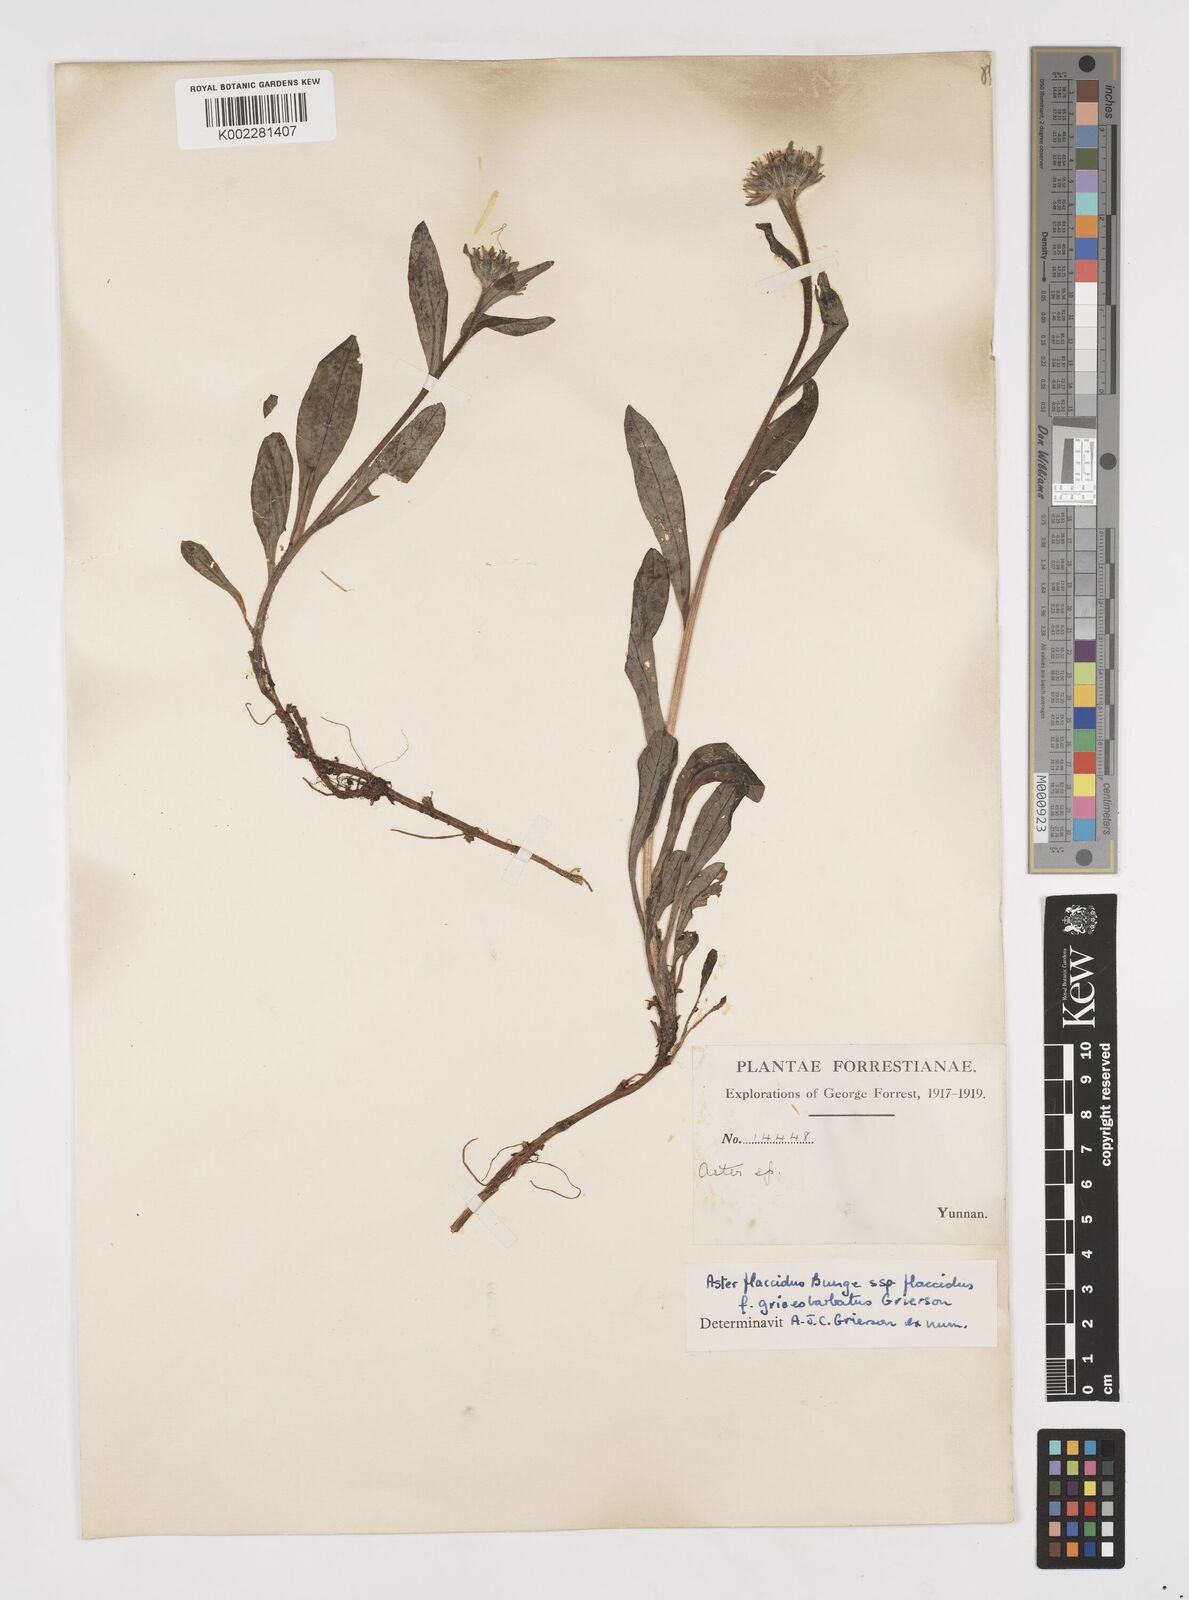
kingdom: Plantae
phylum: Tracheophyta
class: Magnoliopsida
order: Asterales
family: Asteraceae
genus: Tibetiodes
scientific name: Tibetiodes flaccida
